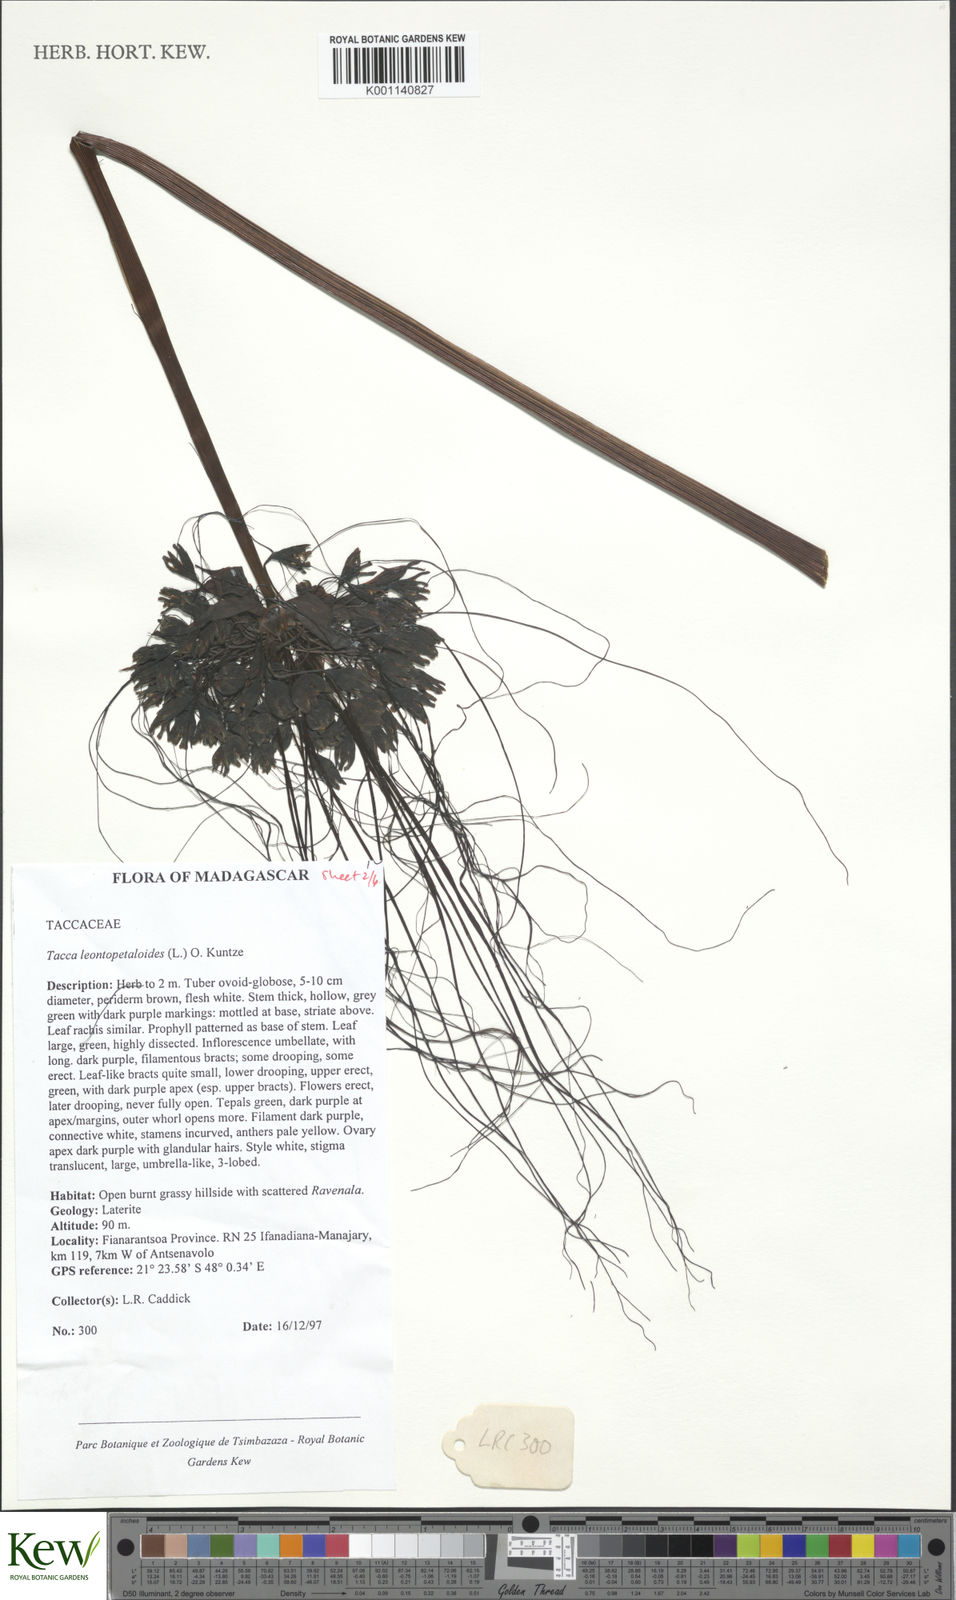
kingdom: Plantae
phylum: Tracheophyta
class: Liliopsida
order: Dioscoreales
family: Dioscoreaceae
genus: Tacca
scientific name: Tacca leontopetaloides
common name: Arrowroot
